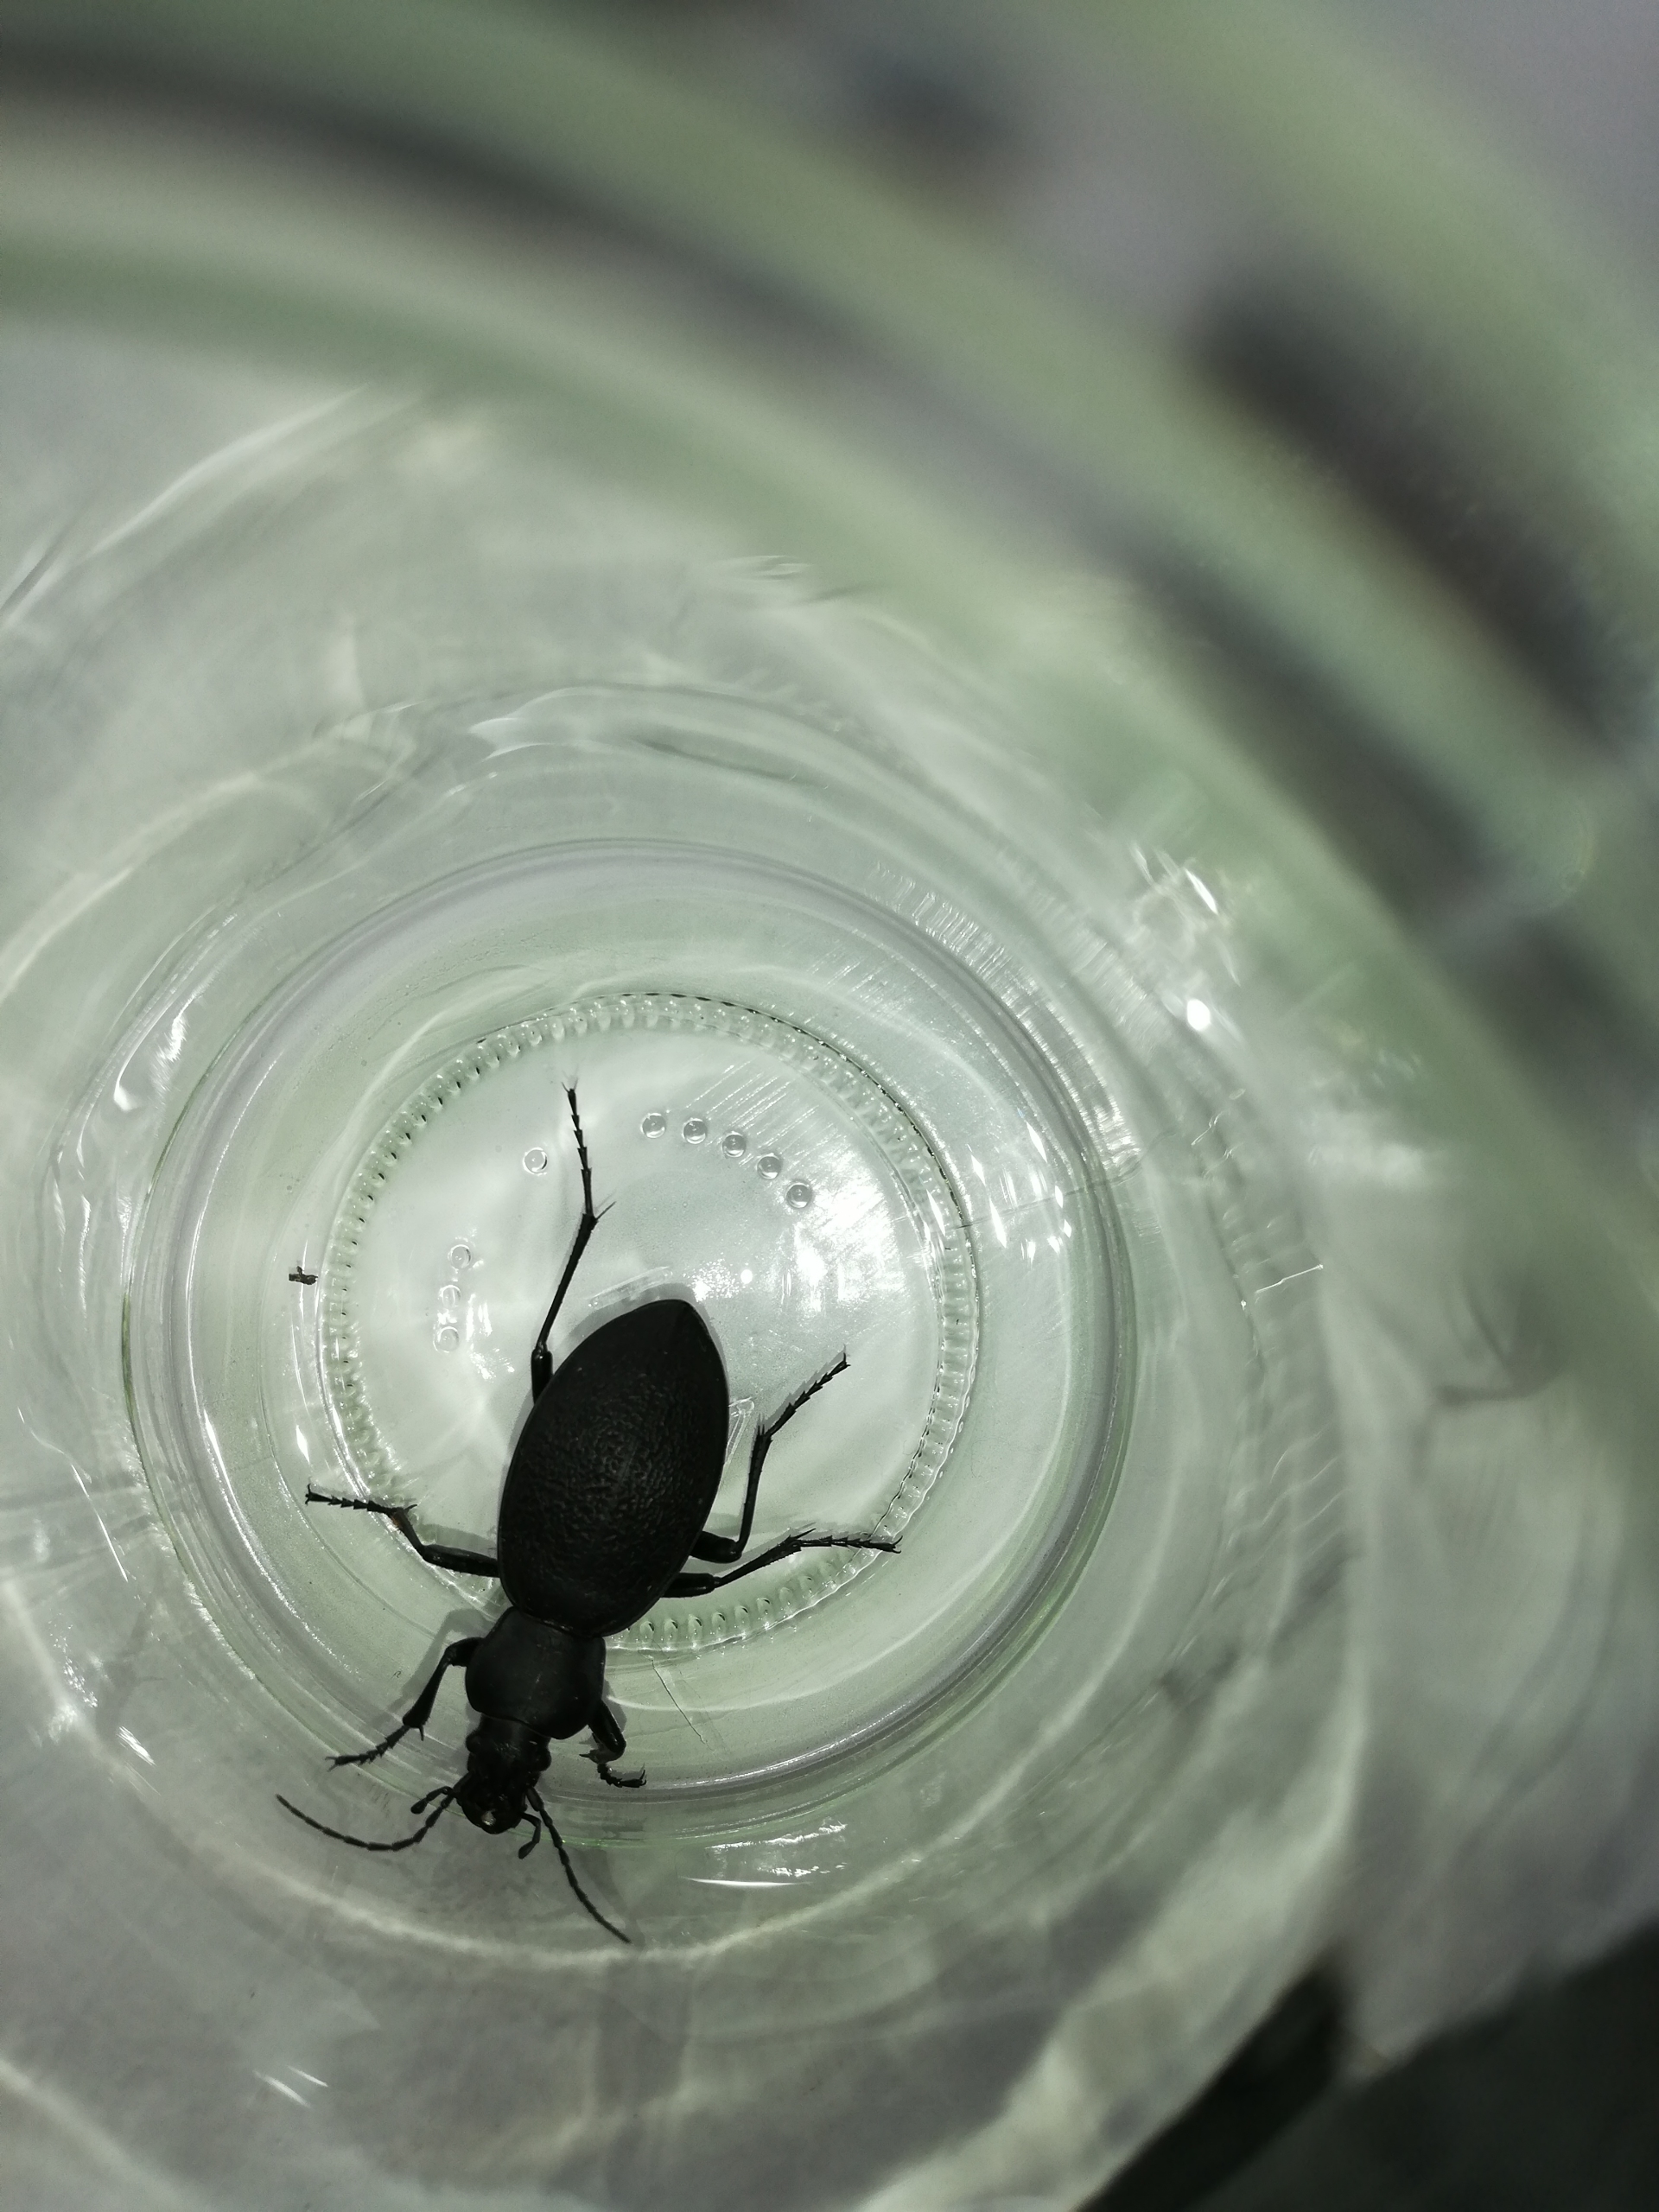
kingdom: Animalia
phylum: Arthropoda
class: Insecta
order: Coleoptera
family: Carabidae
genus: Carabus
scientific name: Carabus coriaceus
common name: Læderløber
